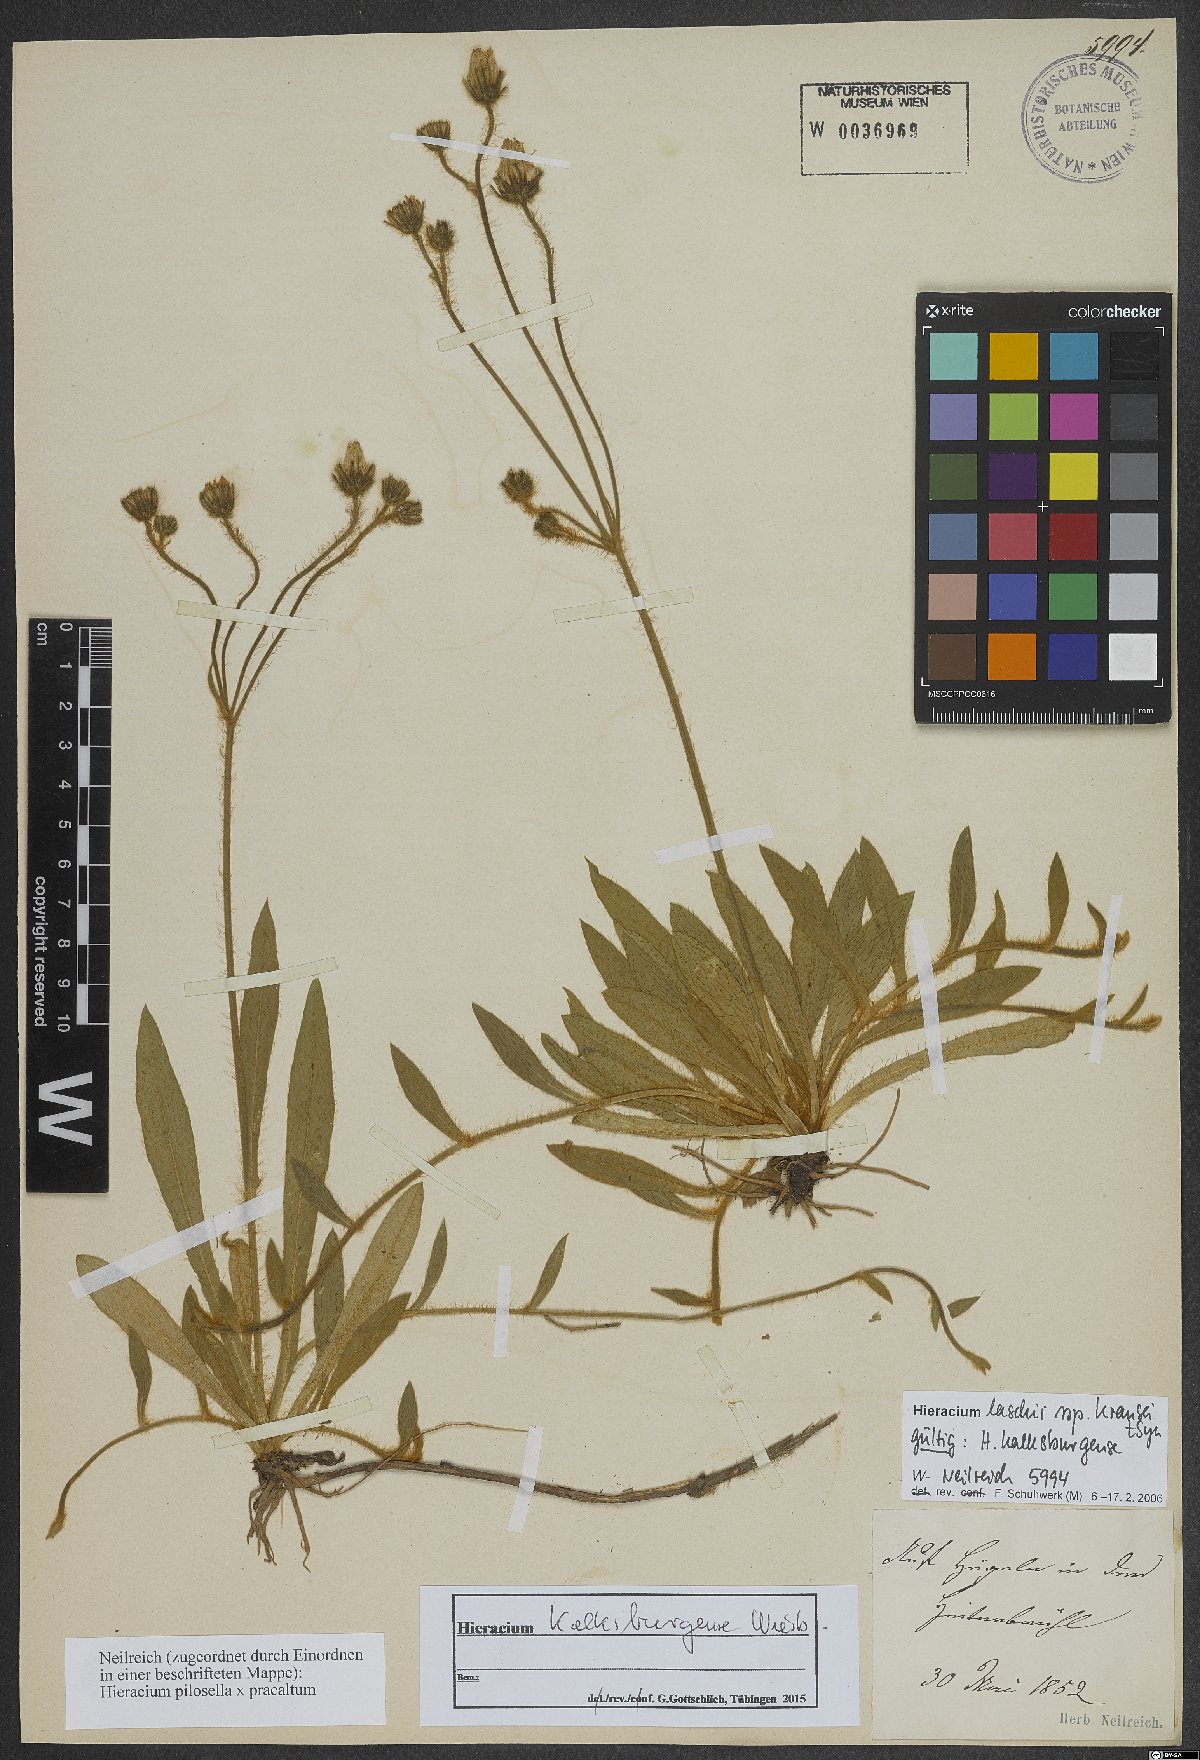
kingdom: Plantae
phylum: Tracheophyta
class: Magnoliopsida
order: Asterales
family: Asteraceae
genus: Pilosella
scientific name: Pilosella acutifolia
